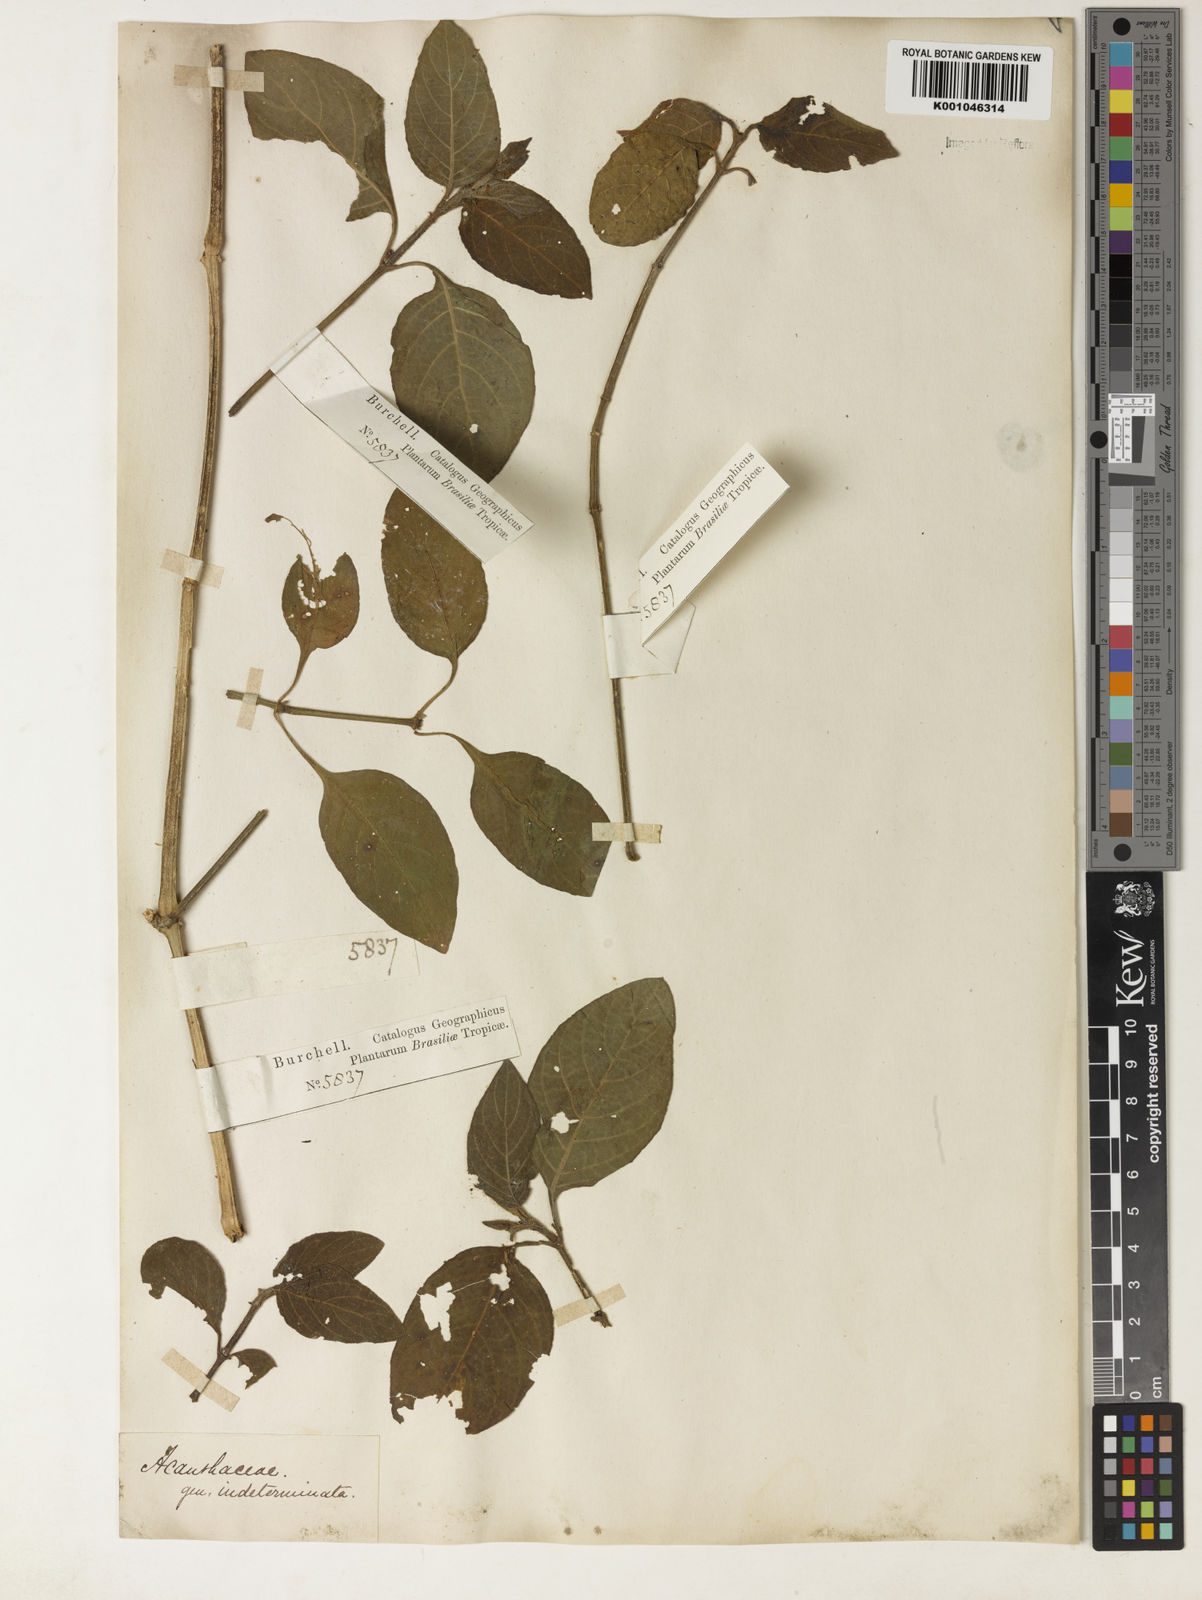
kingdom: Plantae
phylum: Tracheophyta
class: Magnoliopsida
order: Lamiales
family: Acanthaceae
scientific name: Acanthaceae
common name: Acanthaceae
